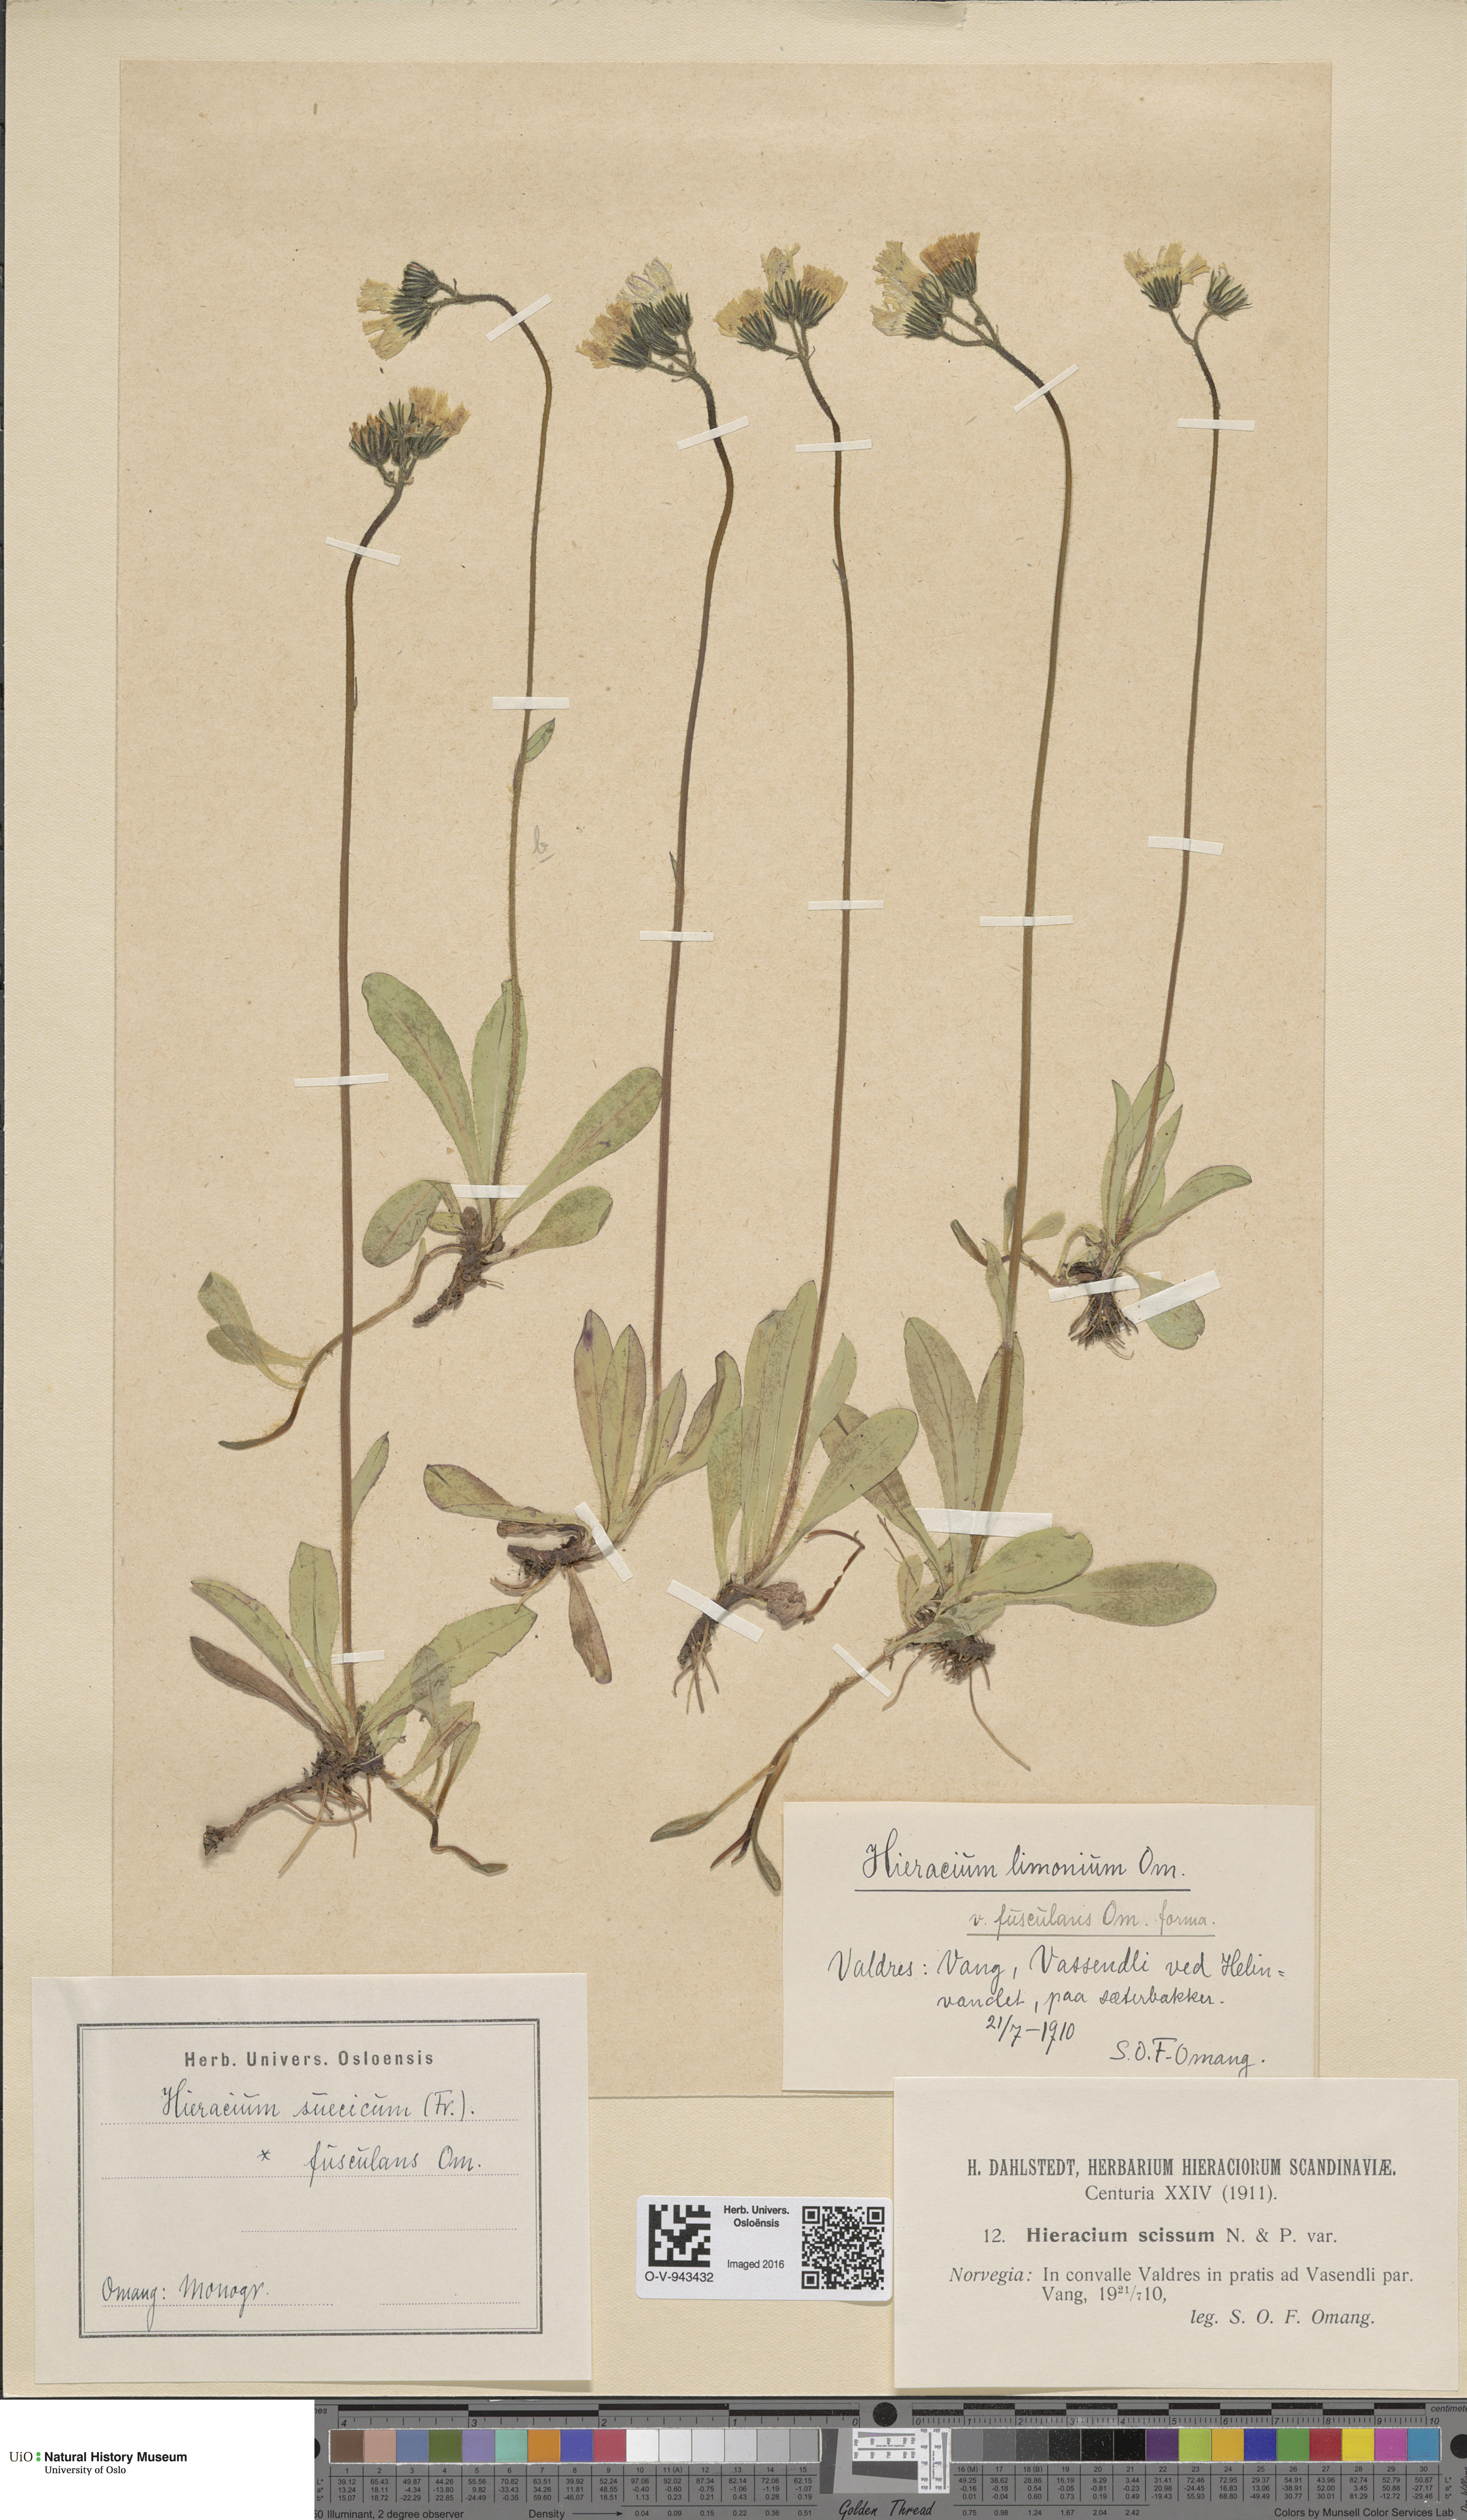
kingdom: Plantae
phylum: Tracheophyta
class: Magnoliopsida
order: Asterales
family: Asteraceae
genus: Pilosella
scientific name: Pilosella dubia
